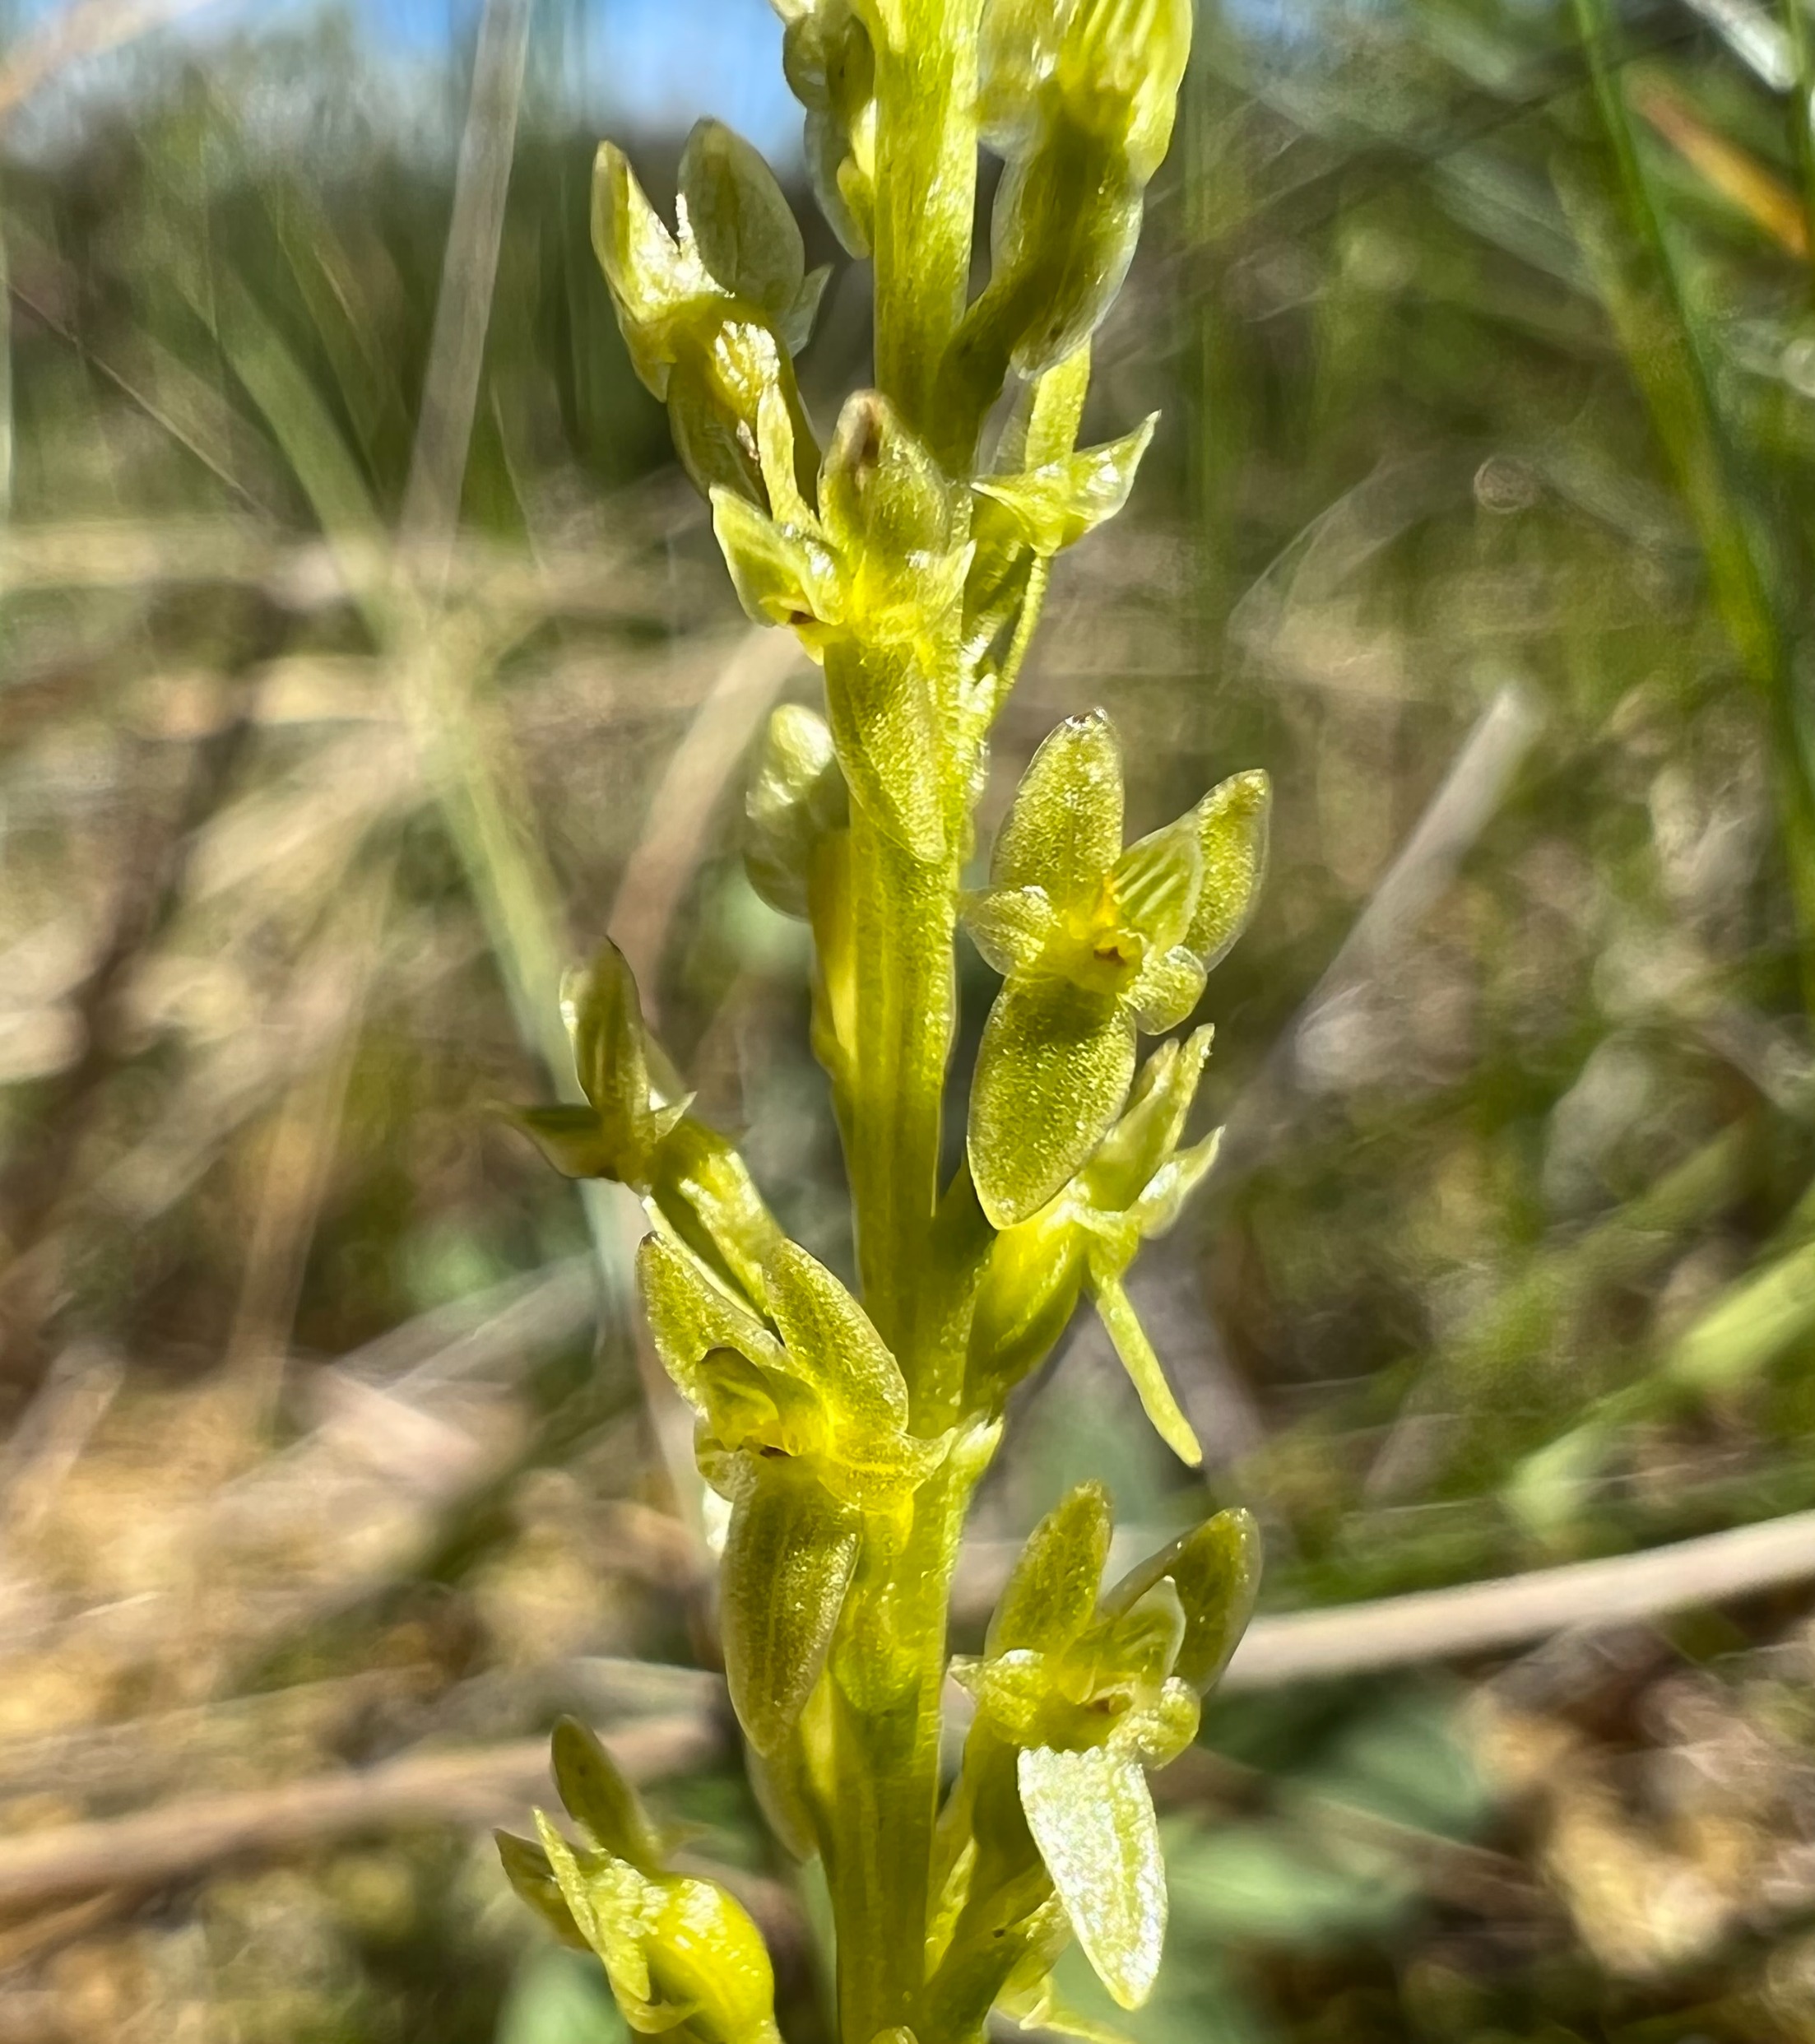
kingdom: Plantae
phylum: Tracheophyta
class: Liliopsida
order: Asparagales
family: Orchidaceae
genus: Hammarbya
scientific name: Hammarbya paludosa
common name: Hjertelæbe
